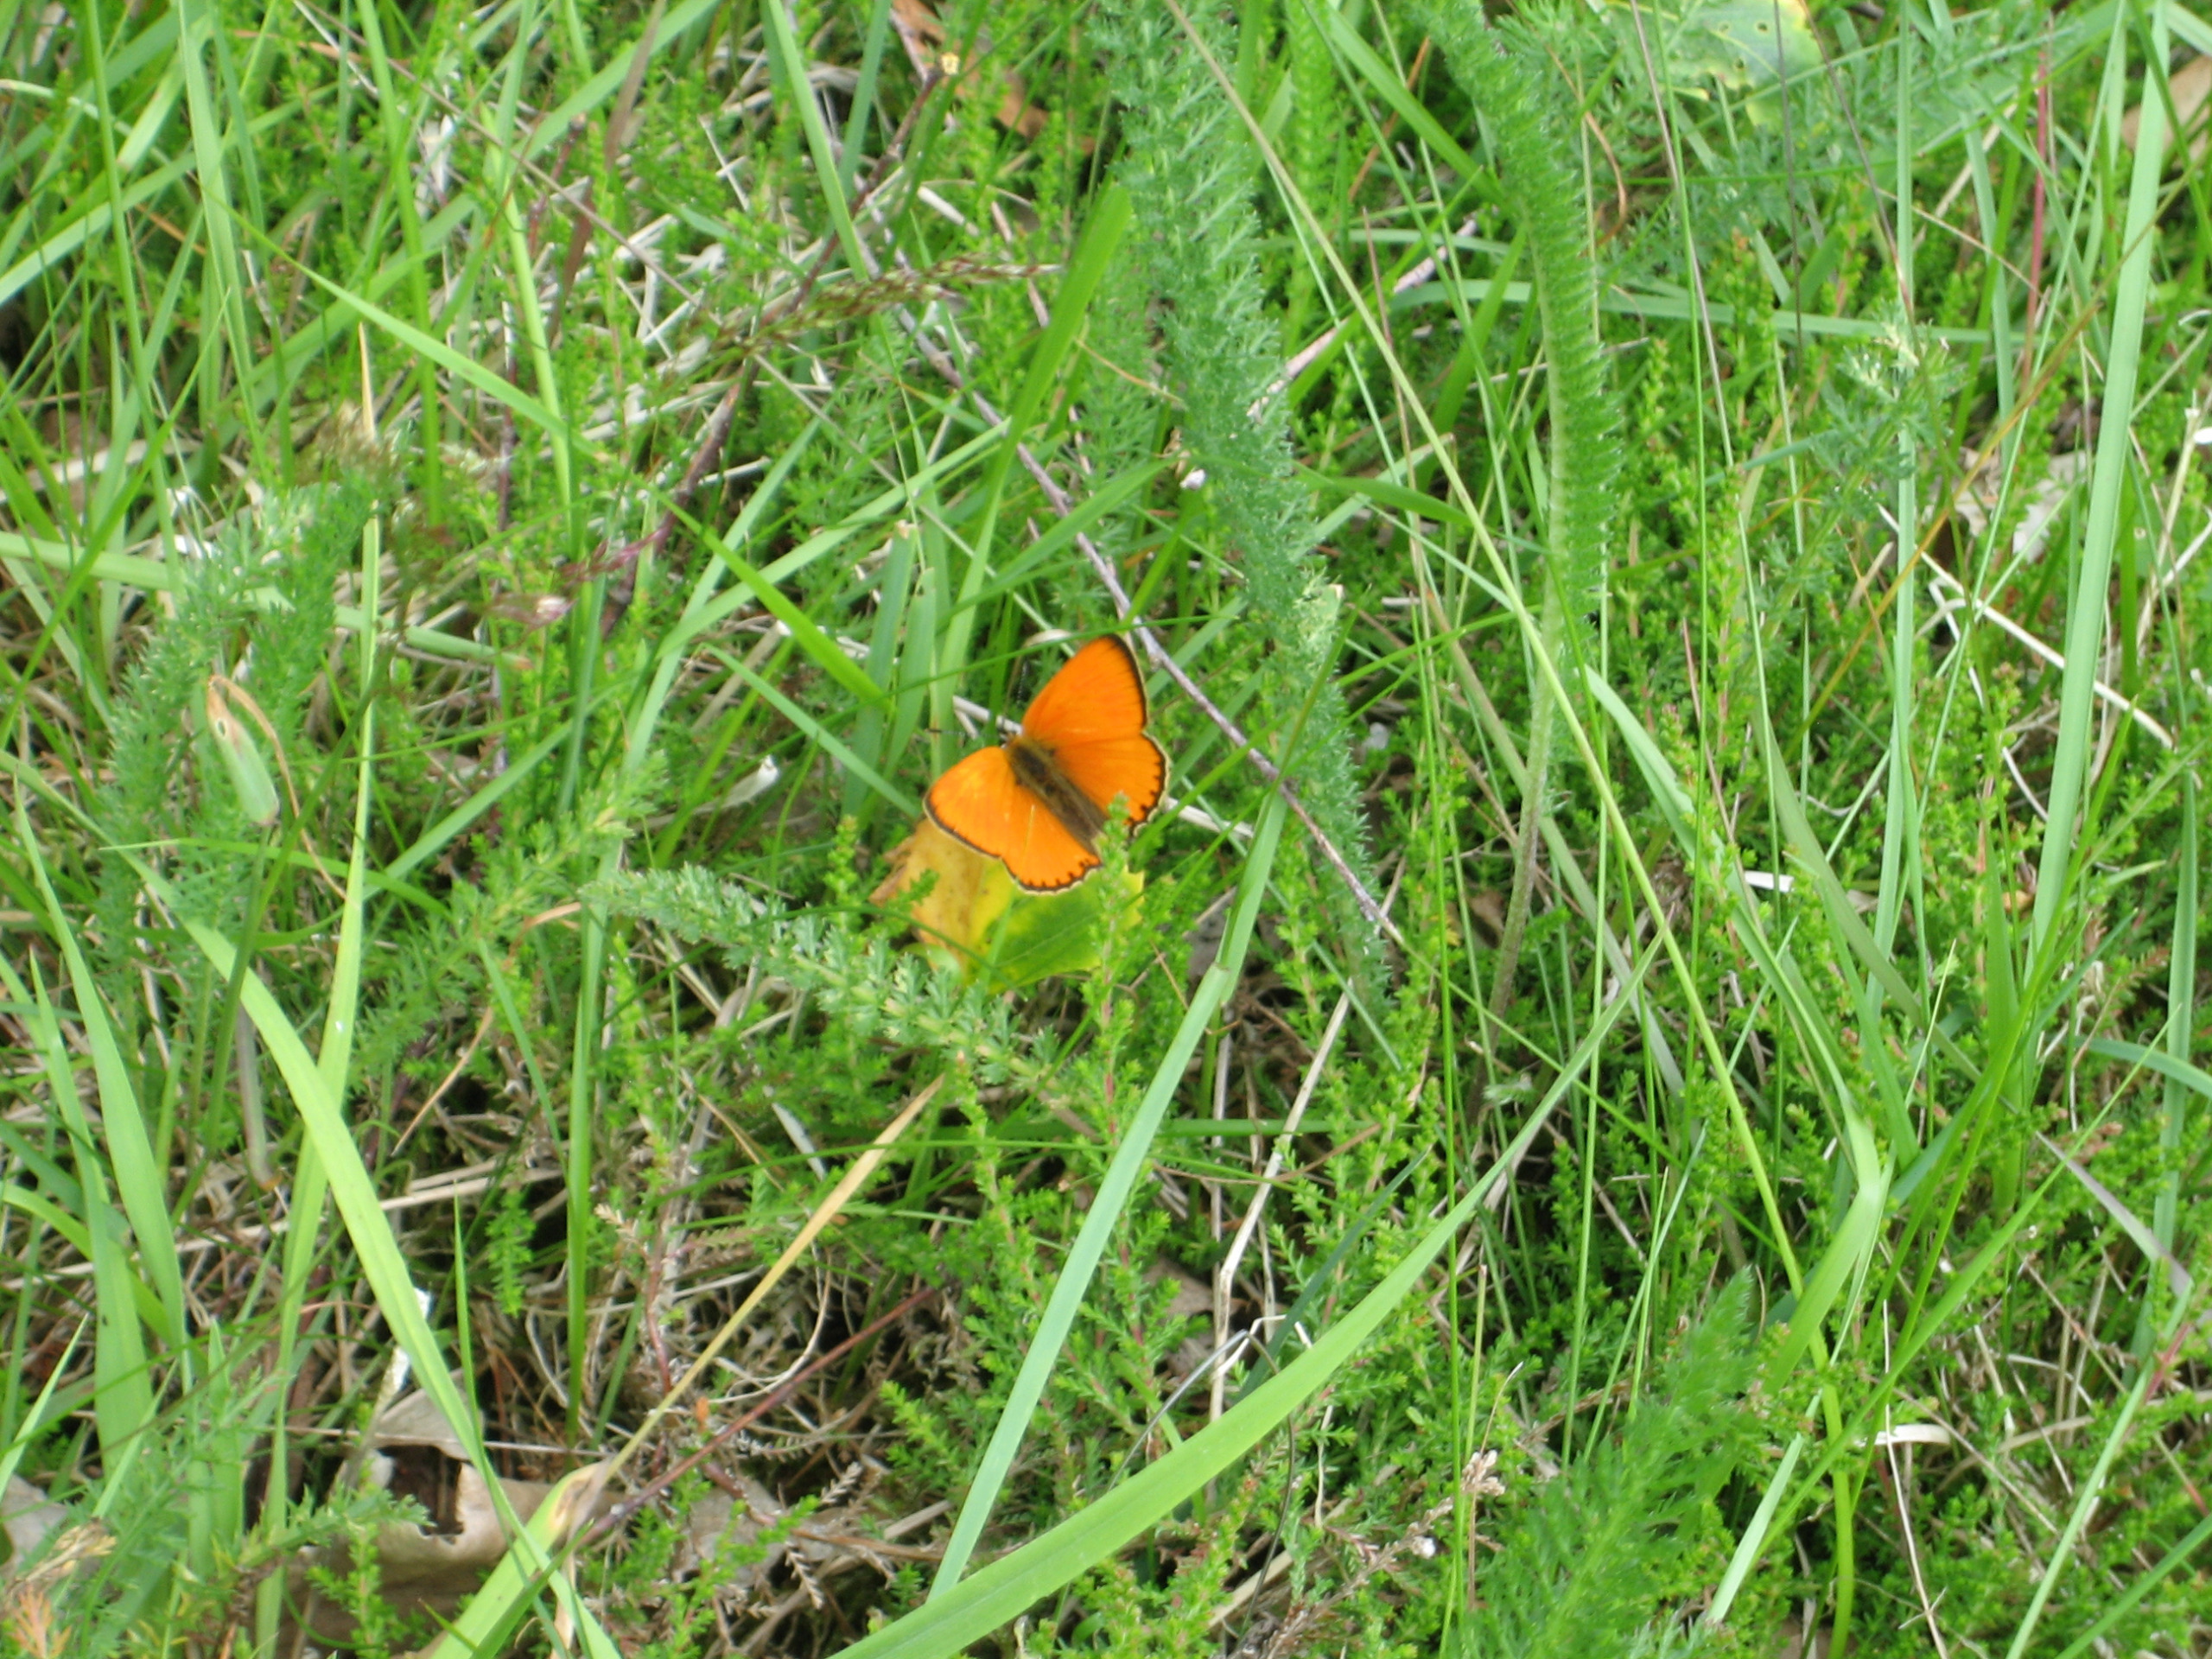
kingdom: Animalia
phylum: Arthropoda
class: Insecta
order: Lepidoptera
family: Lycaenidae
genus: Lycaena
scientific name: Lycaena virgaureae
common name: Dukatsommerfugl
